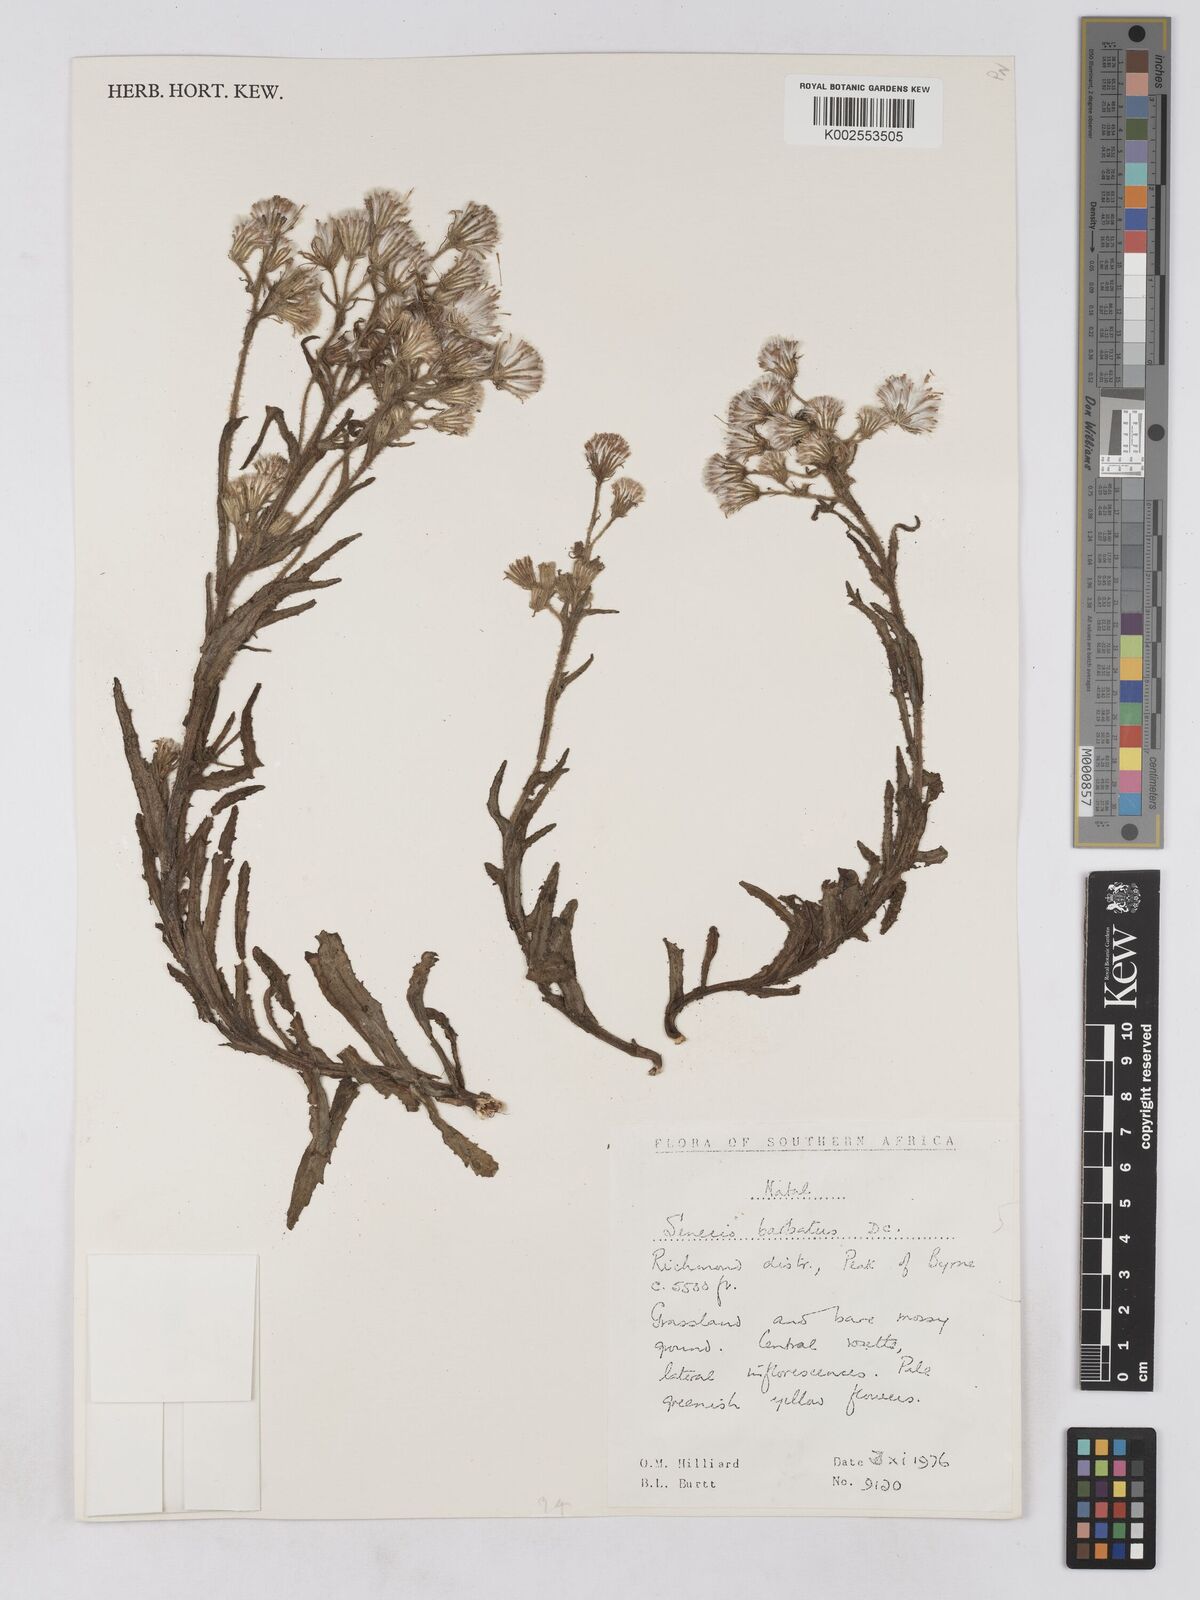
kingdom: Plantae
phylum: Tracheophyta
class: Magnoliopsida
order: Asterales
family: Asteraceae
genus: Senecio
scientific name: Senecio barbatus
